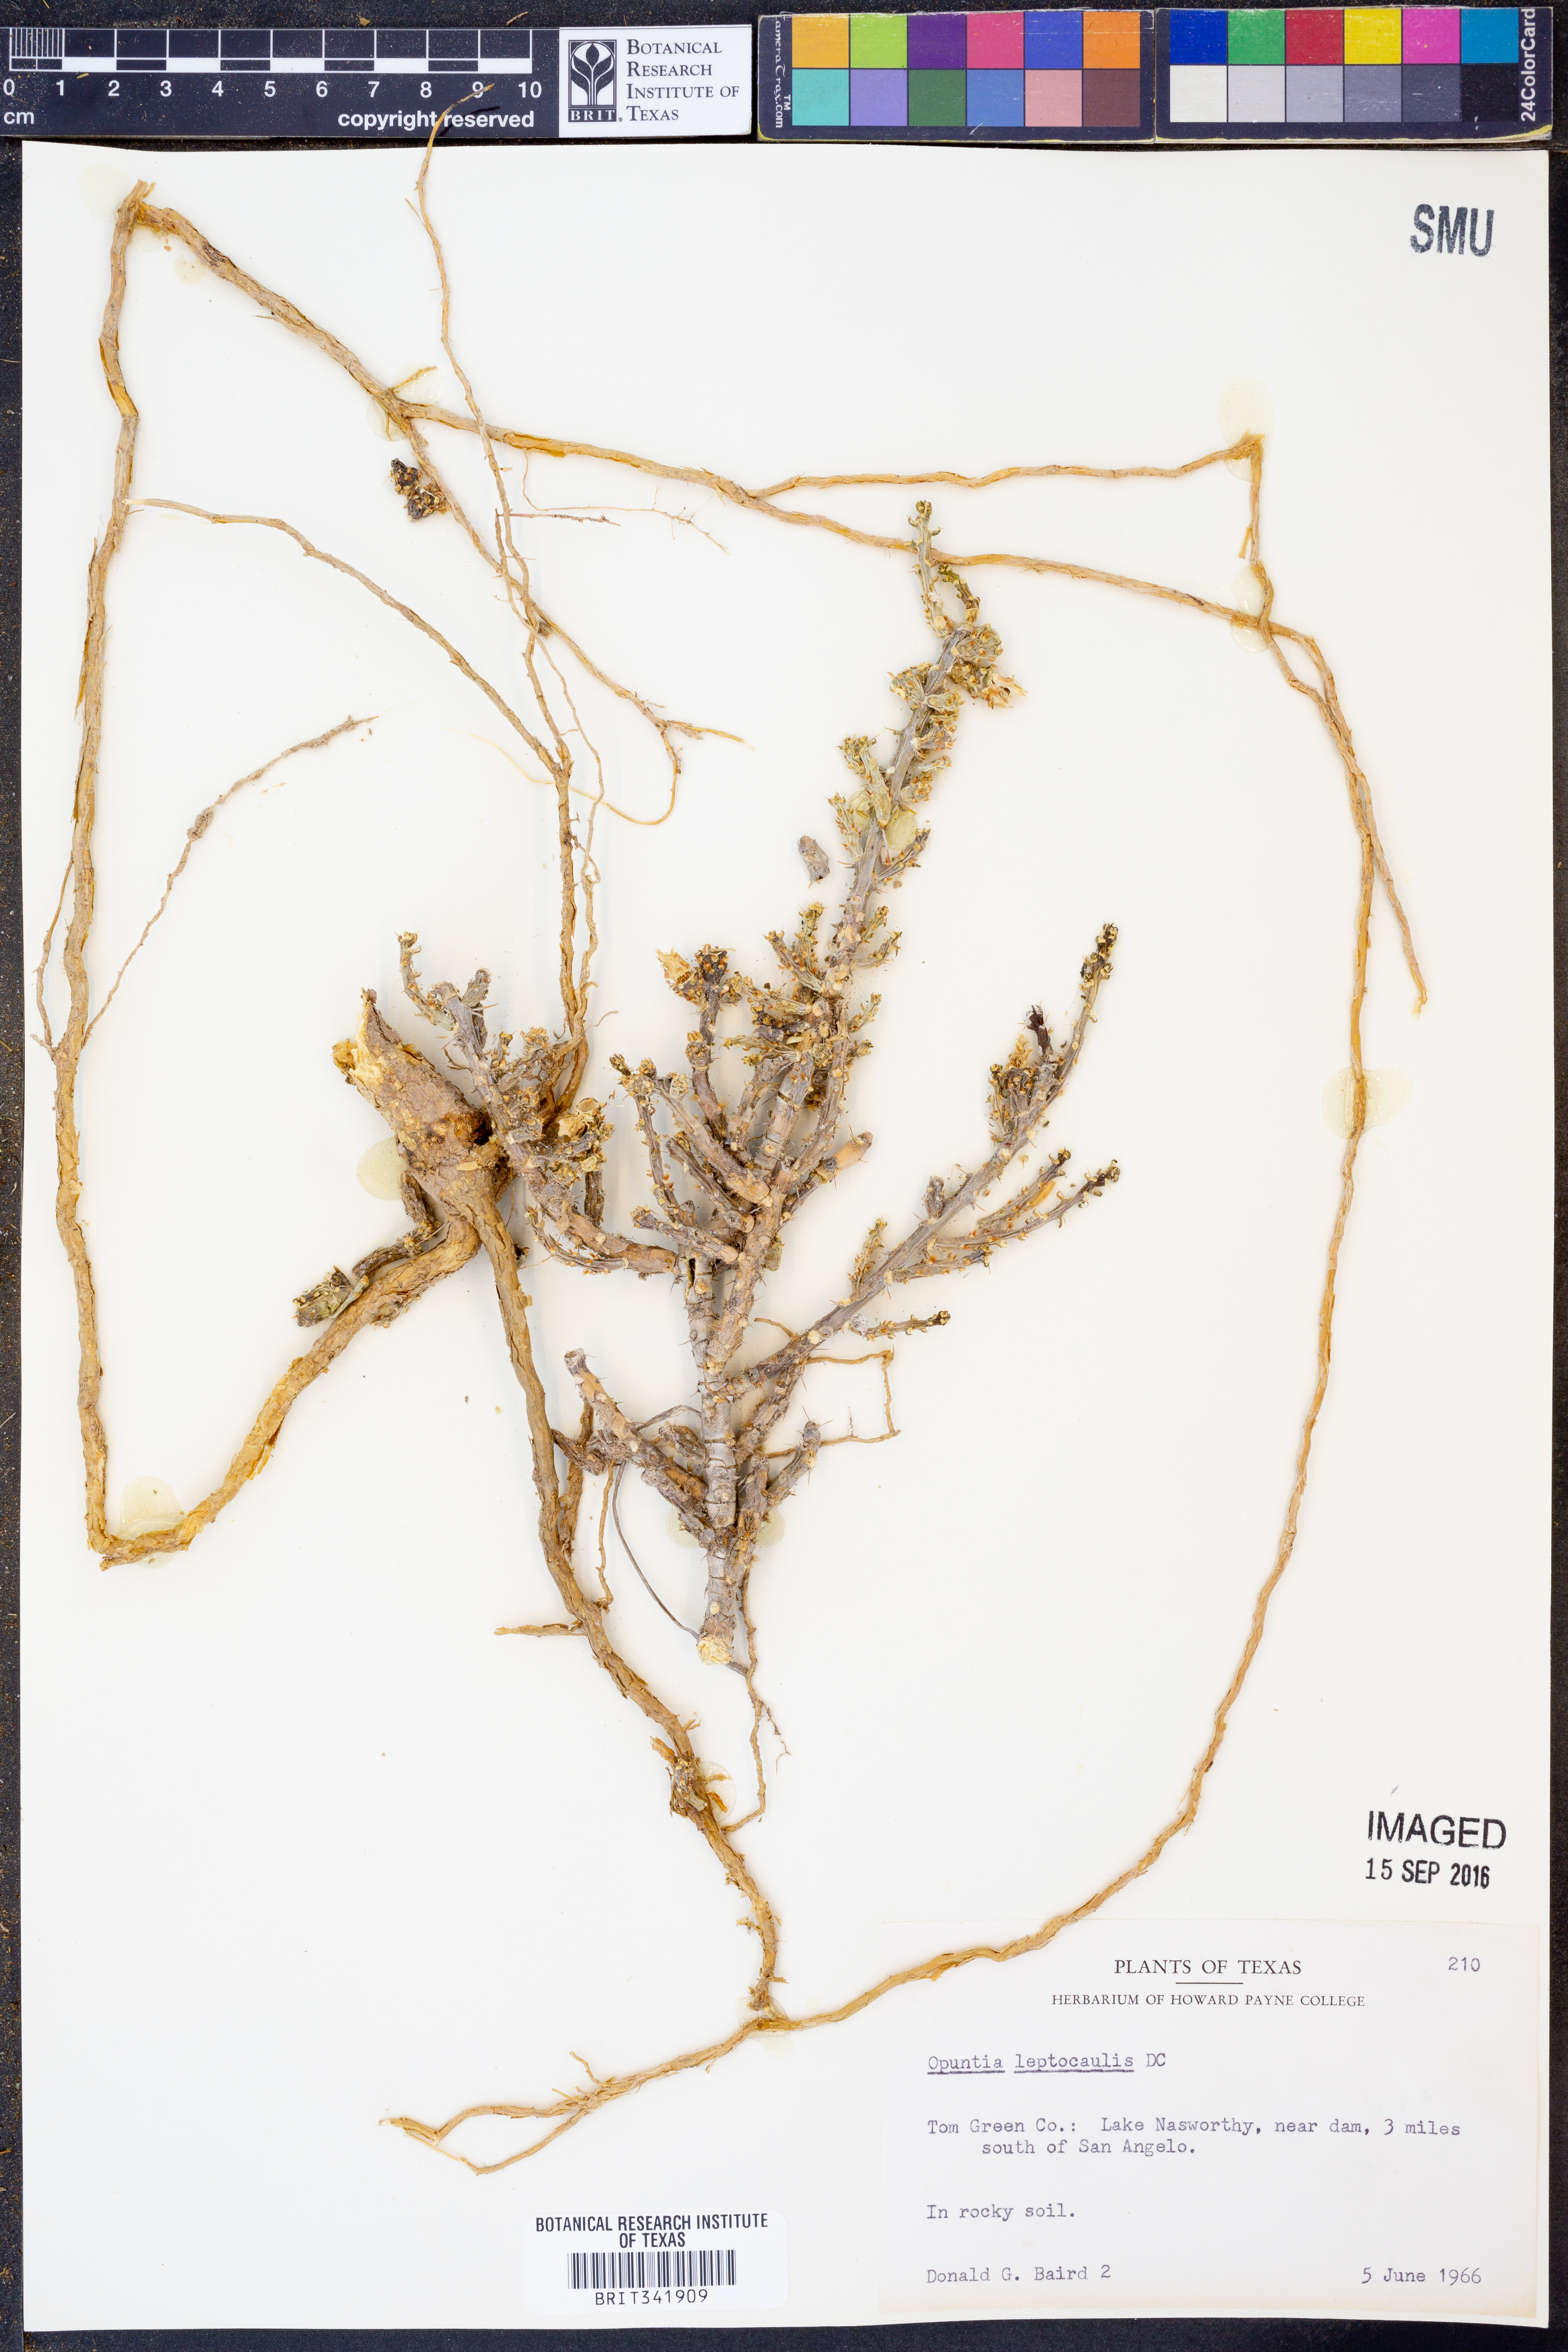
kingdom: Plantae
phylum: Tracheophyta
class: Magnoliopsida
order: Caryophyllales
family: Cactaceae
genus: Cylindropuntia
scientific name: Cylindropuntia leptocaulis
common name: Christmas cactus
